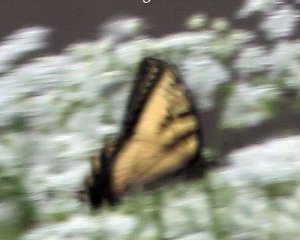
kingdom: Animalia
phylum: Arthropoda
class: Insecta
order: Lepidoptera
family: Papilionidae
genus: Pterourus
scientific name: Pterourus canadensis
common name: Canadian Tiger Swallowtail
